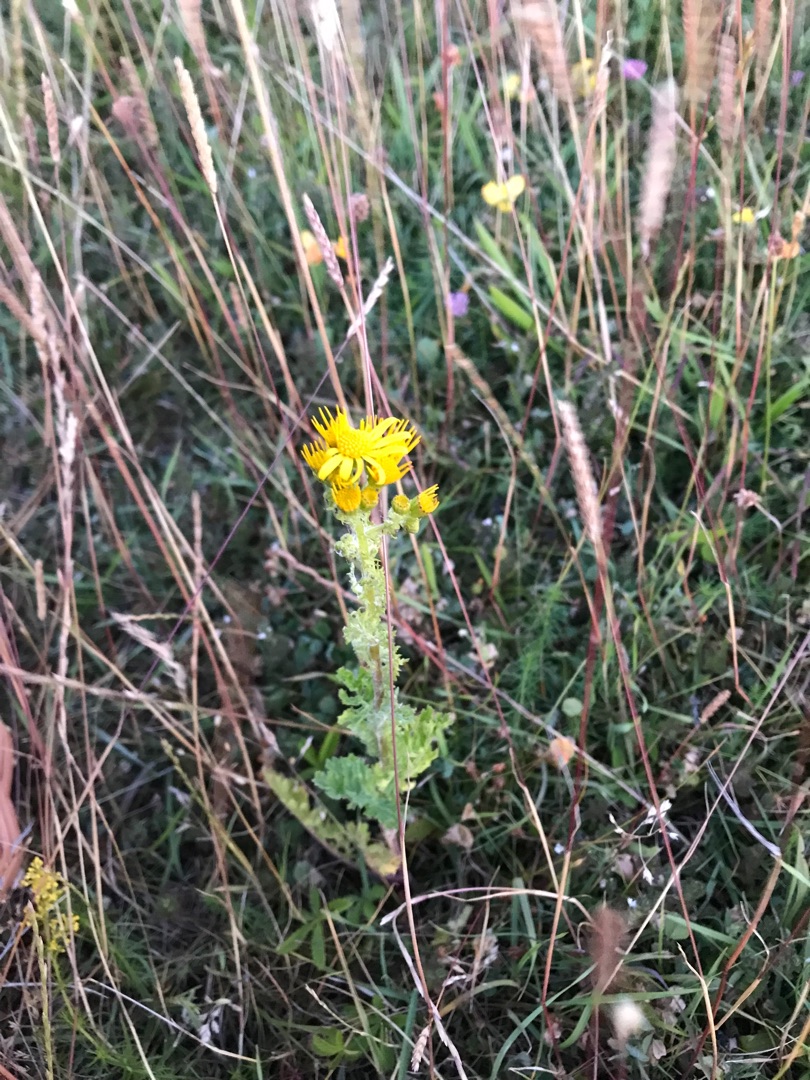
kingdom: Plantae
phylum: Tracheophyta
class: Magnoliopsida
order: Asterales
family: Asteraceae
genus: Jacobaea
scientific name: Jacobaea vulgaris
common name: Eng-brandbæger
